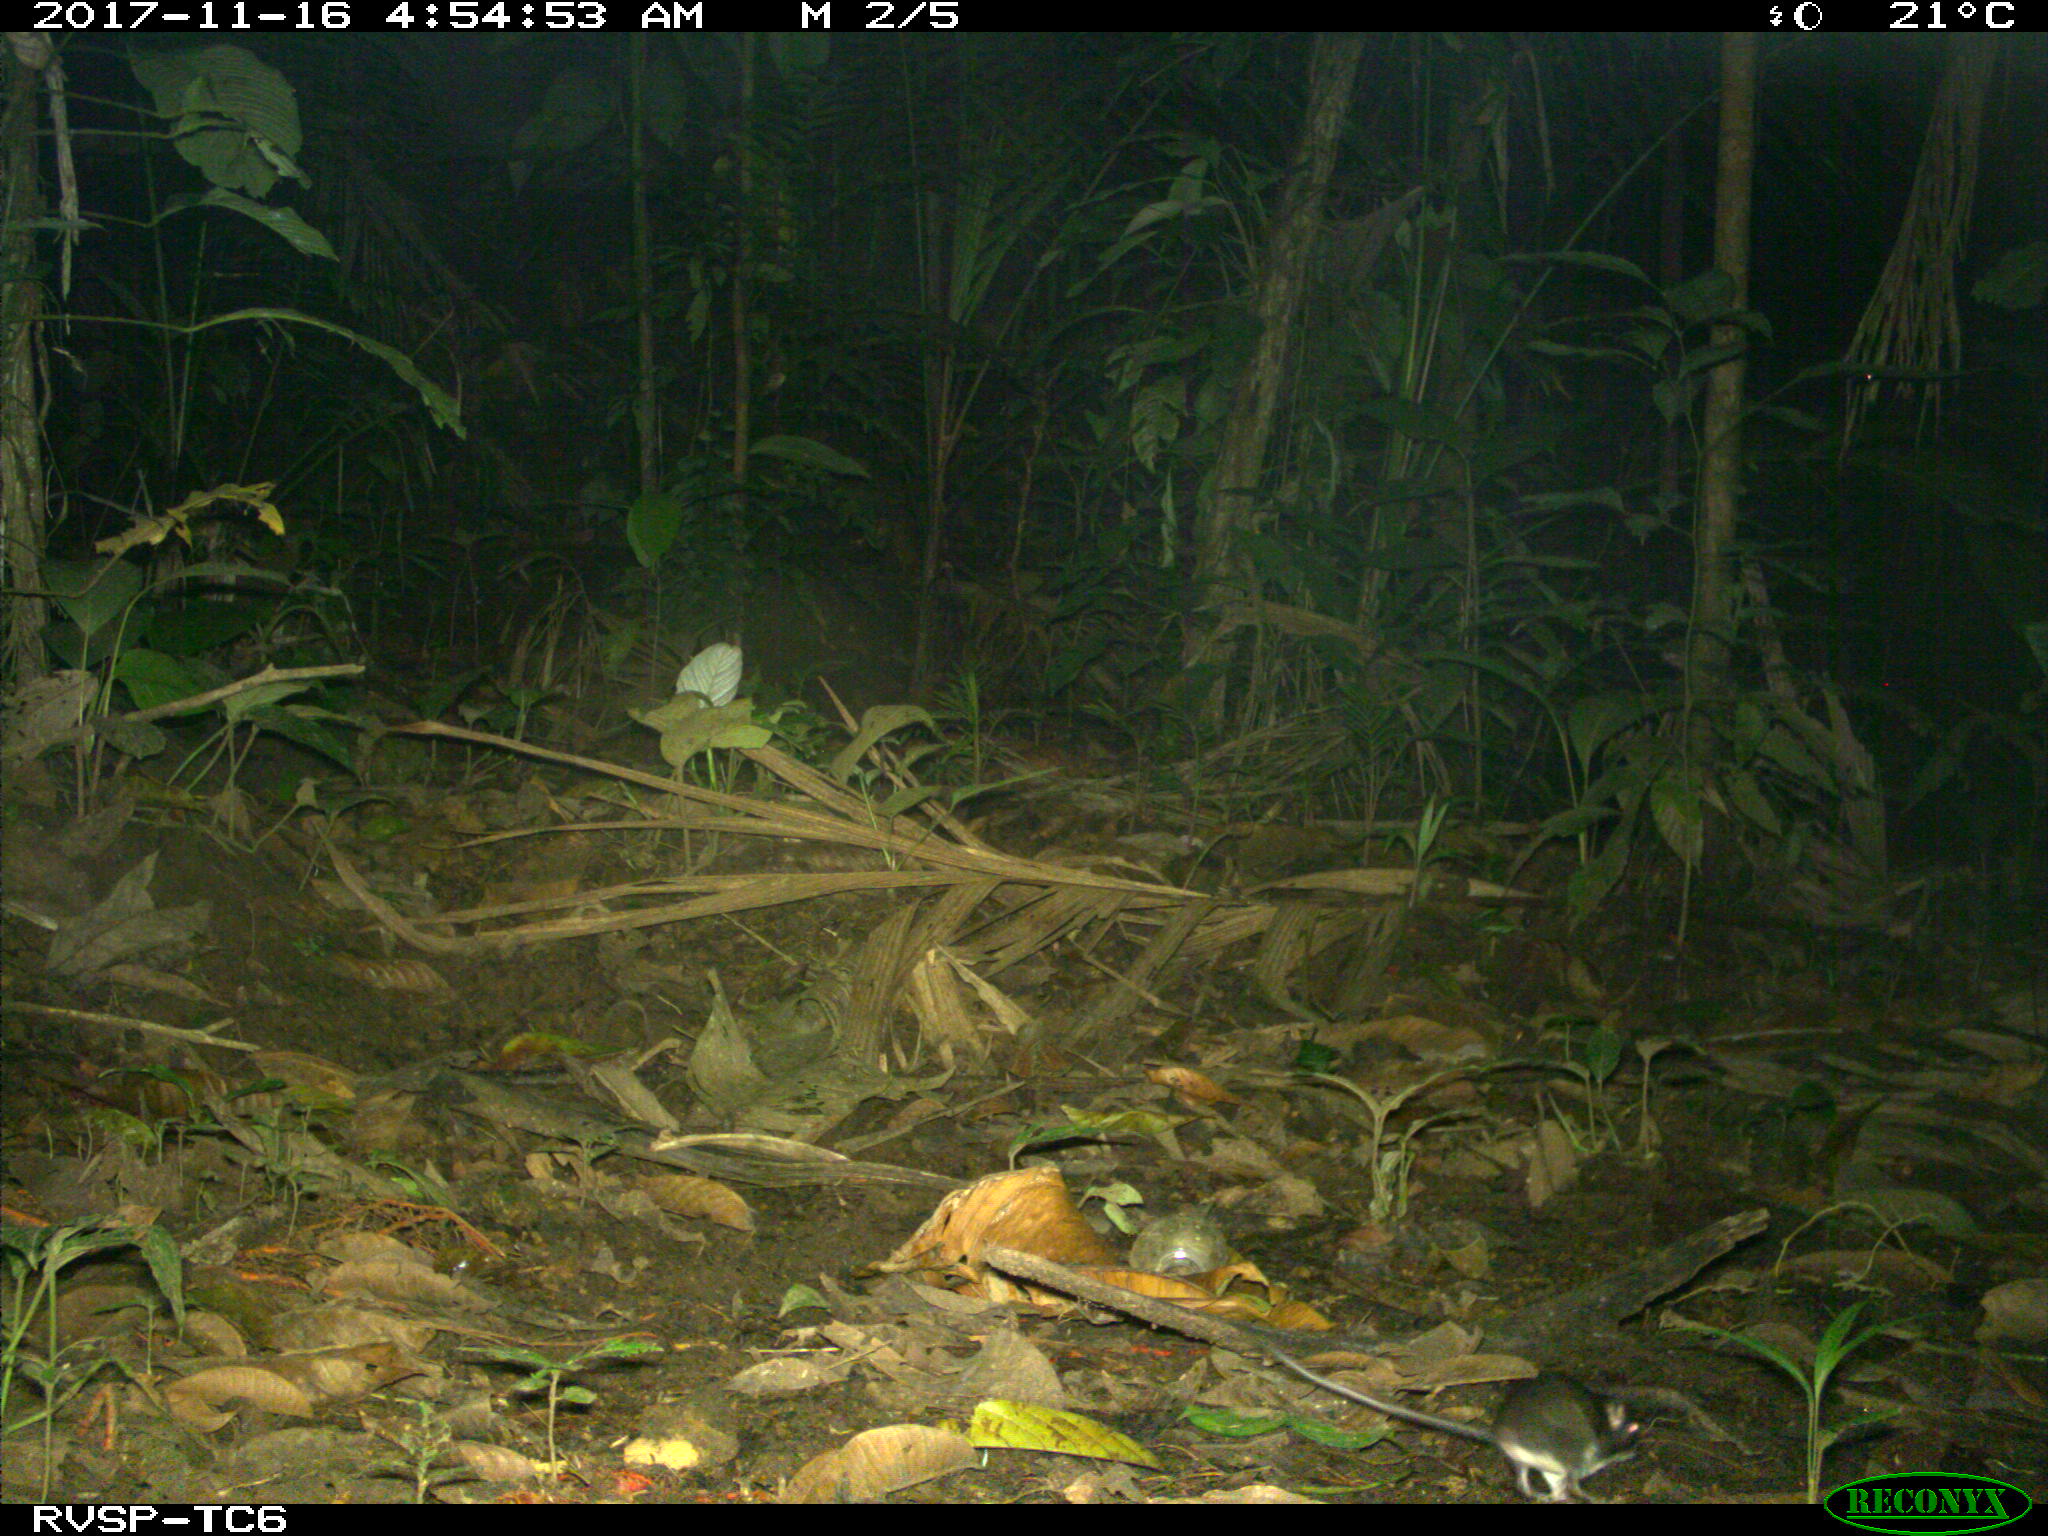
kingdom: Animalia
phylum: Chordata
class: Mammalia
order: Rodentia
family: Echimyidae
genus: Proechimys
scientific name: Proechimys
